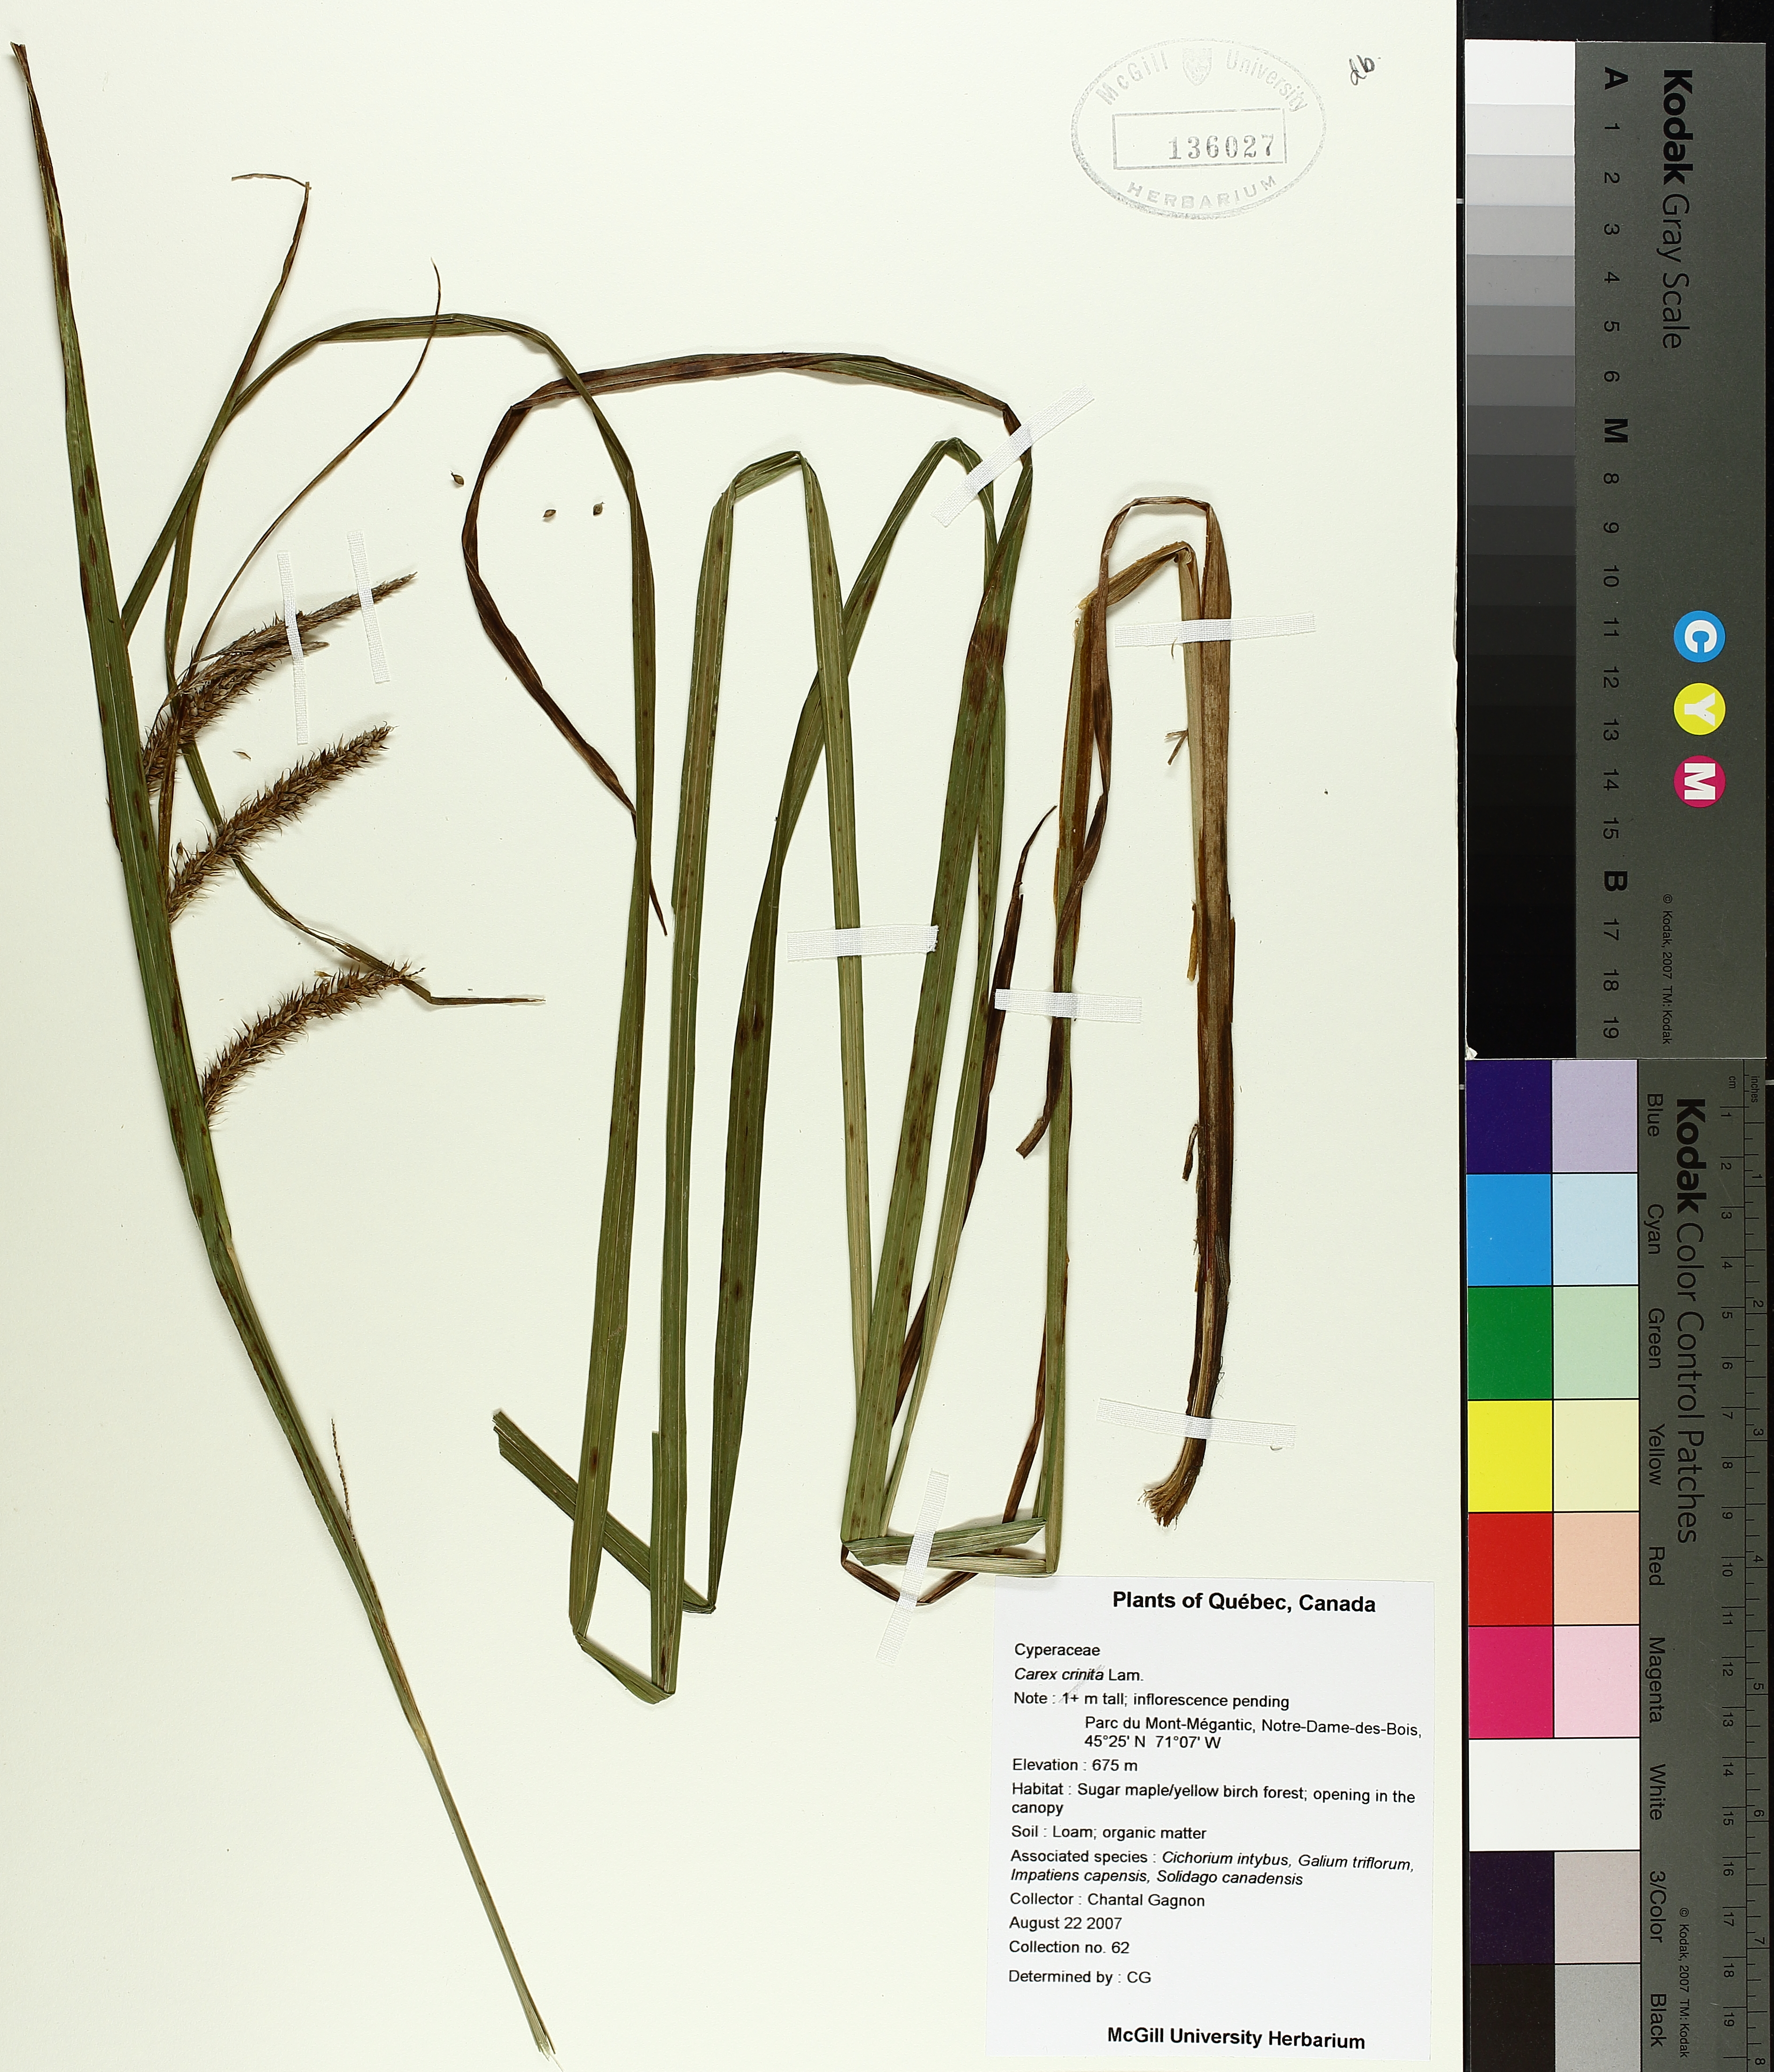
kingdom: Plantae
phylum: Tracheophyta
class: Liliopsida
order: Poales
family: Cyperaceae
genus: Carex
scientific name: Carex crinita
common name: Fringed sedge
